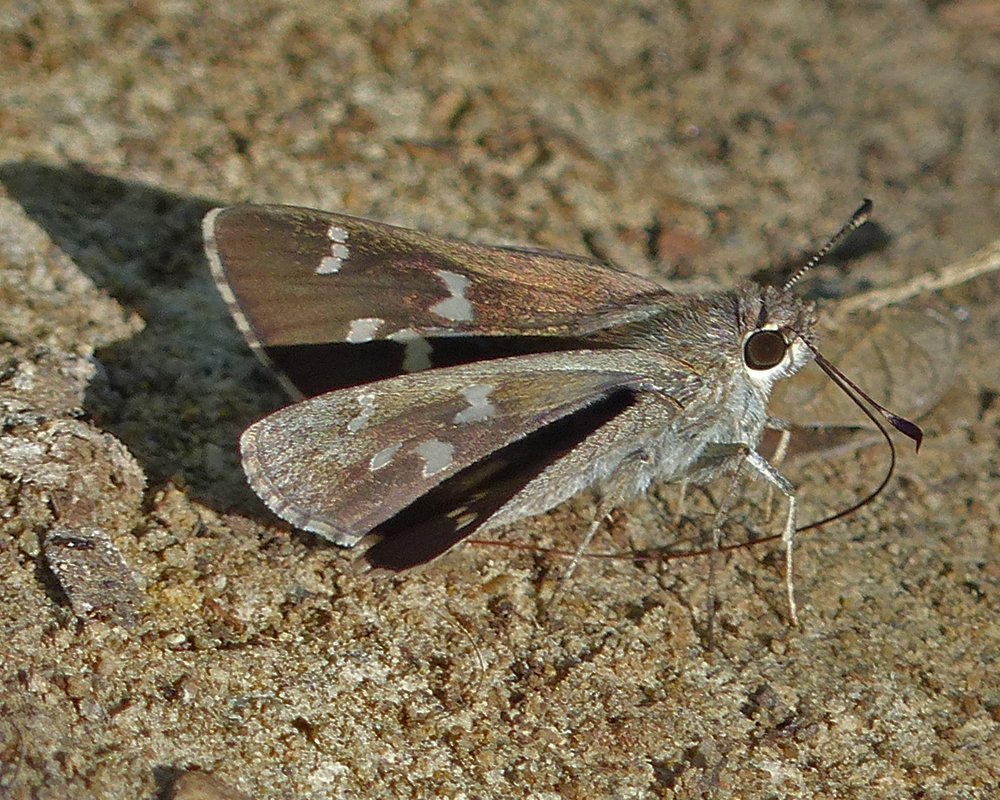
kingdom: Animalia
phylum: Arthropoda
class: Insecta
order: Lepidoptera
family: Hesperiidae
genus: Atrytonopsis
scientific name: Atrytonopsis ovinia
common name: Sheep Skipper
